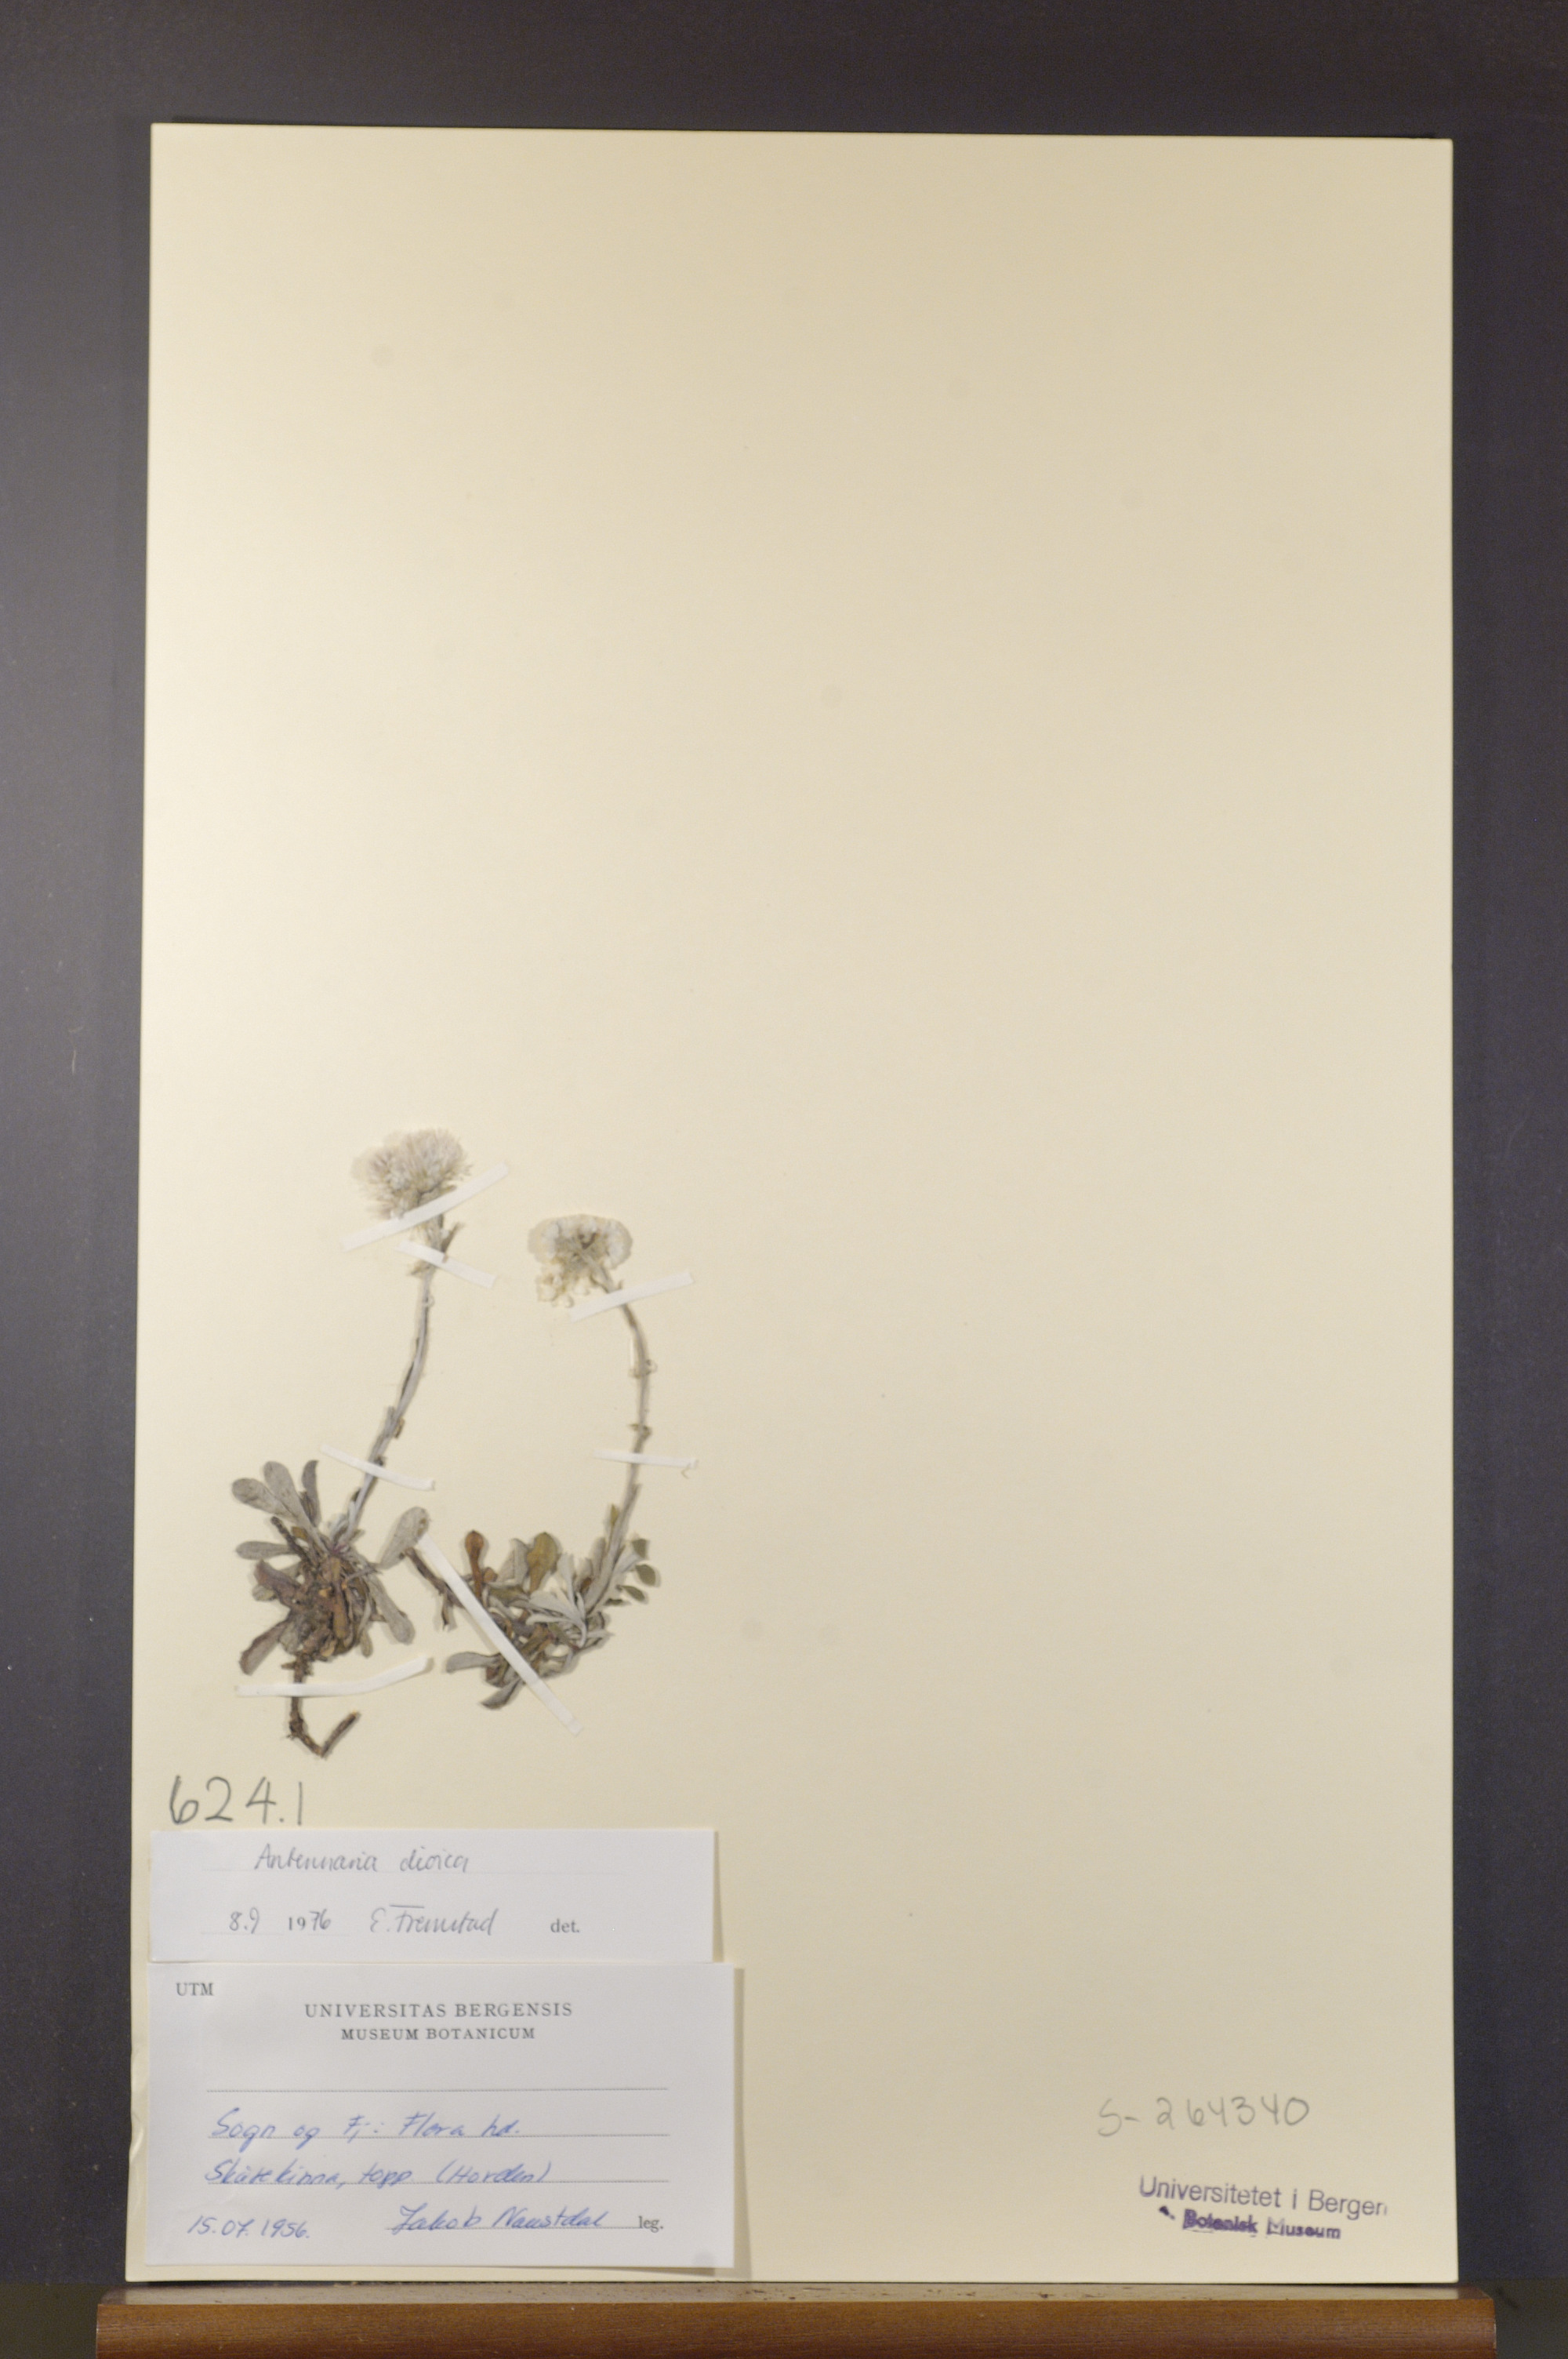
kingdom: Plantae
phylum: Tracheophyta
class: Magnoliopsida
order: Asterales
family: Asteraceae
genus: Antennaria
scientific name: Antennaria dioica
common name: Mountain everlasting
